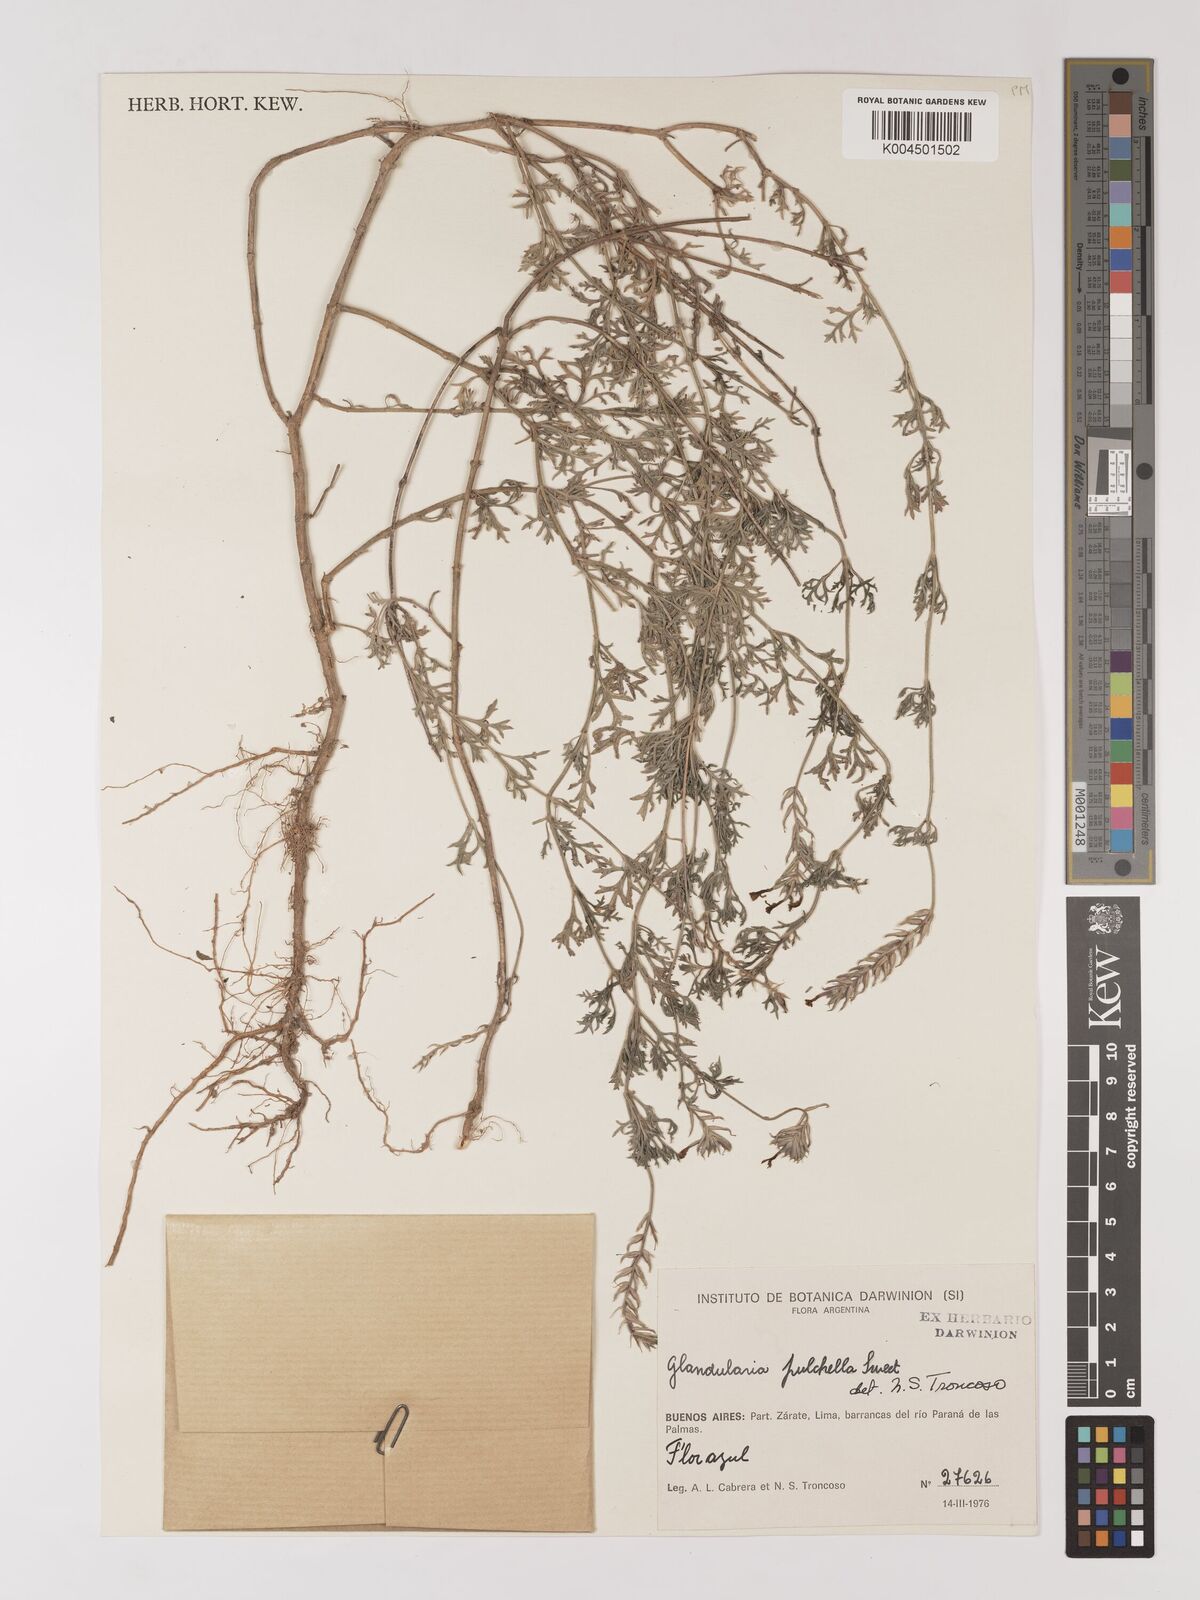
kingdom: Plantae
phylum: Tracheophyta
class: Magnoliopsida
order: Lamiales
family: Verbenaceae
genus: Verbena
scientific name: Verbena tenera
